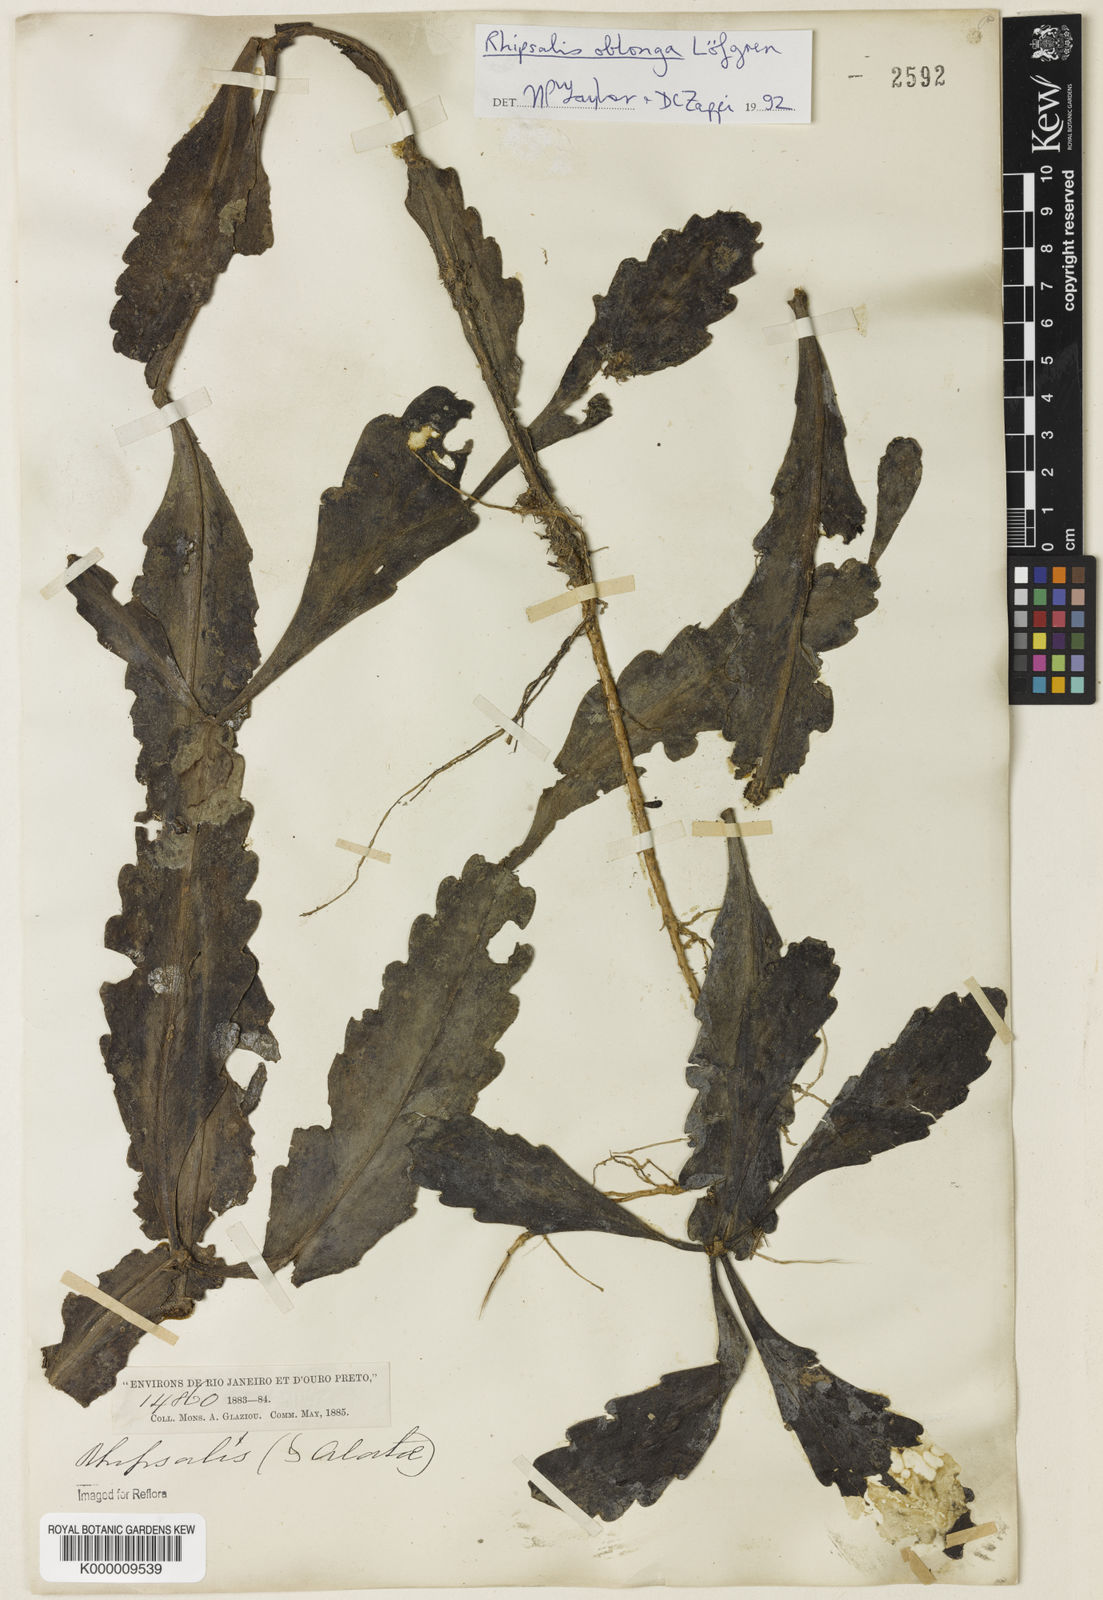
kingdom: Plantae
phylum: Tracheophyta
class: Magnoliopsida
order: Caryophyllales
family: Cactaceae
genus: Rhipsalis
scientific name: Rhipsalis
